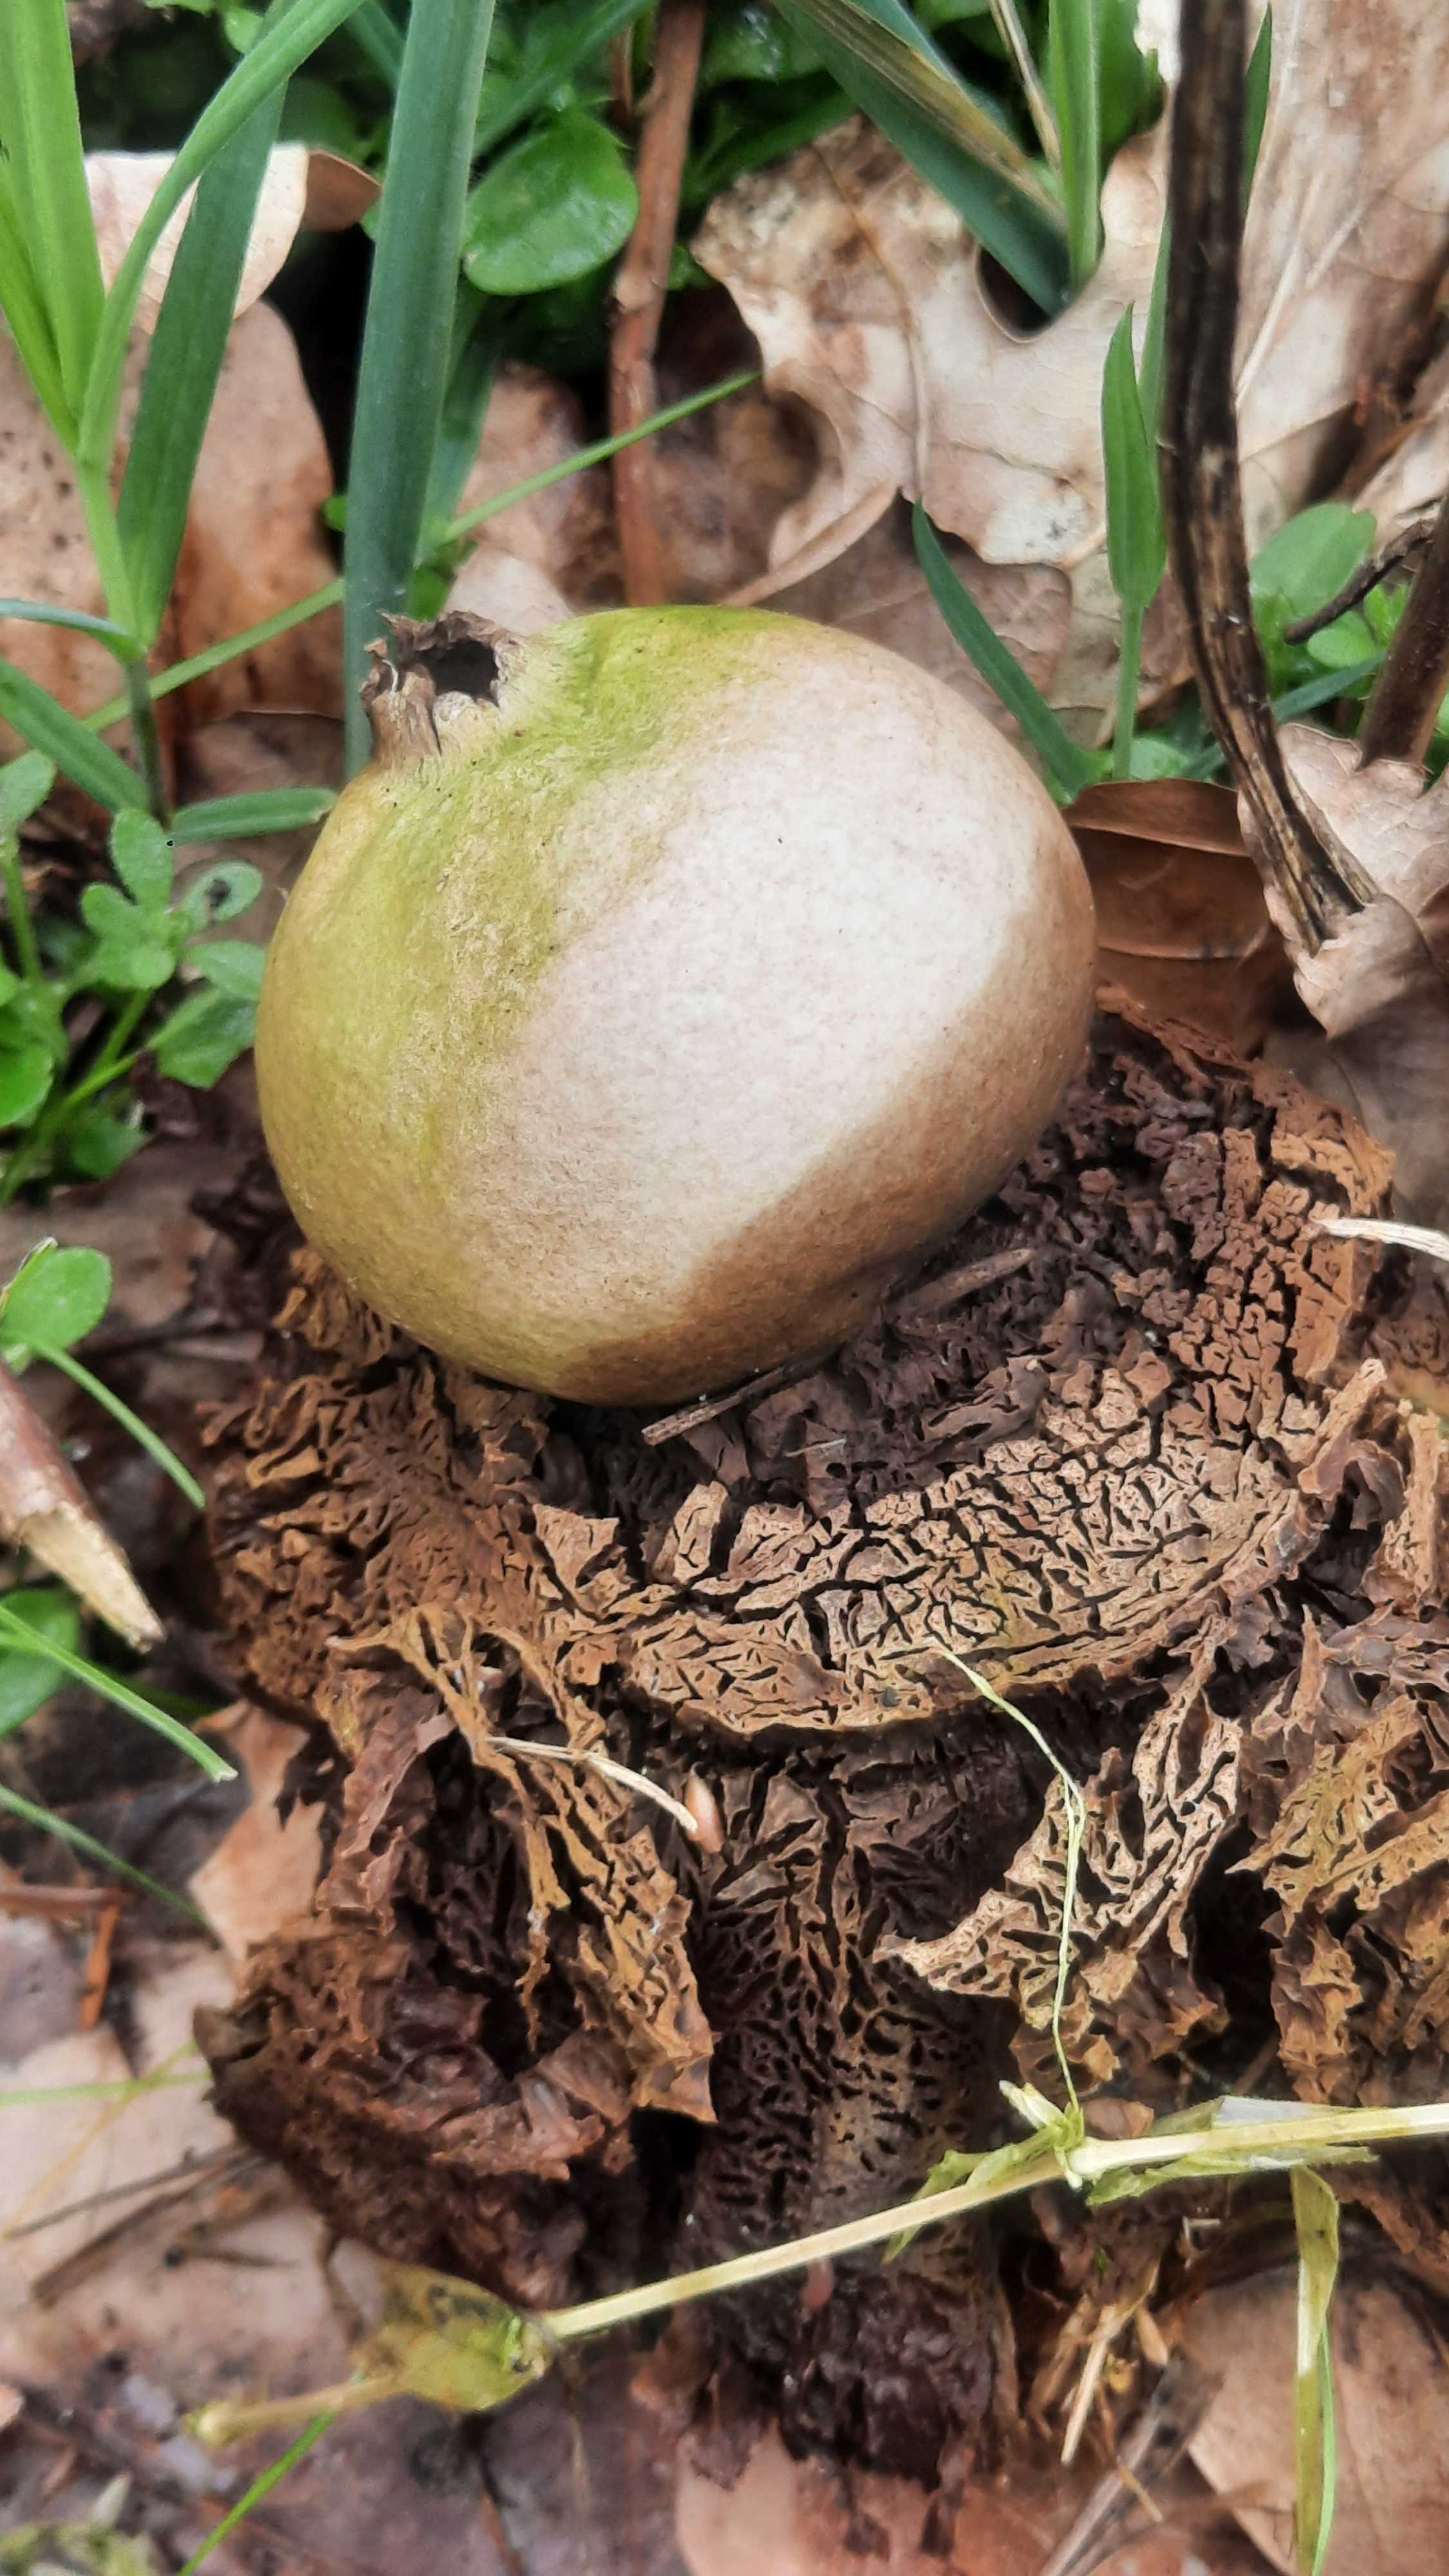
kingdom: Fungi
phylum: Basidiomycota
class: Agaricomycetes
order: Geastrales
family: Geastraceae
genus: Geastrum
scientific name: Geastrum michelianum
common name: kødet stjernebold
